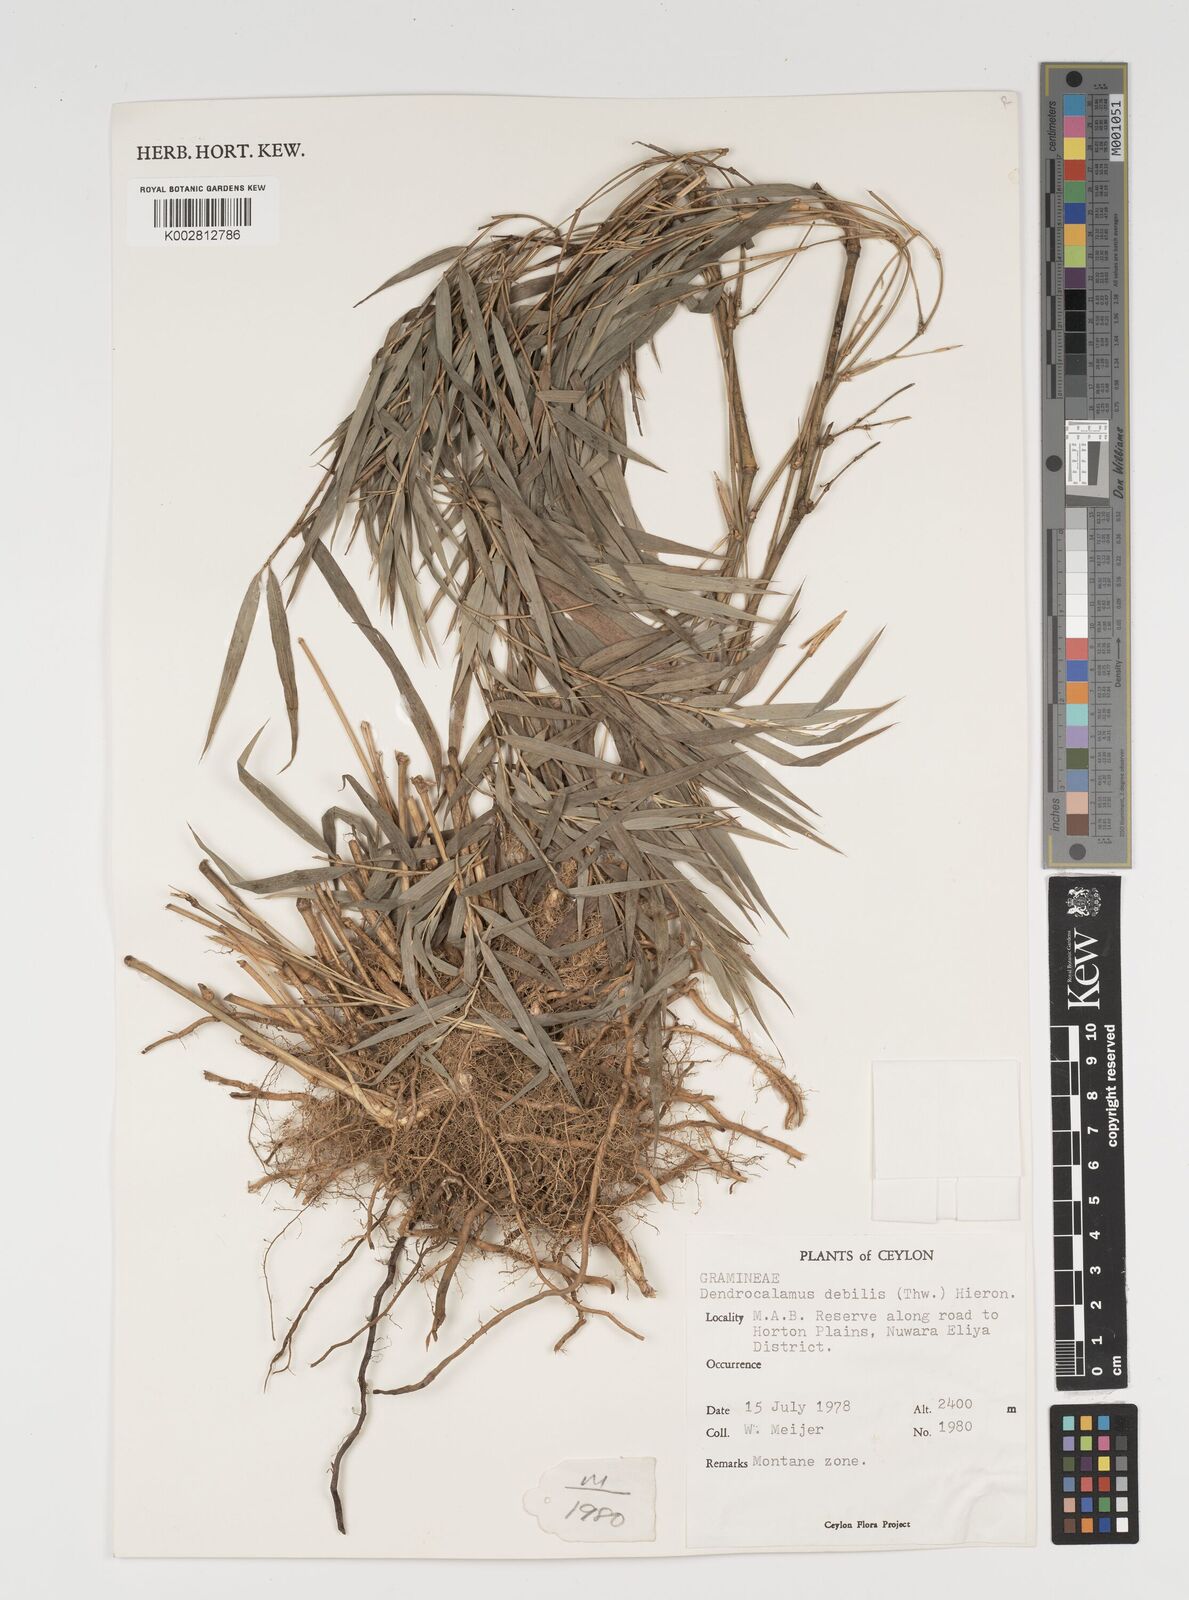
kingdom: Plantae
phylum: Tracheophyta
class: Liliopsida
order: Poales
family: Poaceae
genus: Kuruna
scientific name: Kuruna debilis
